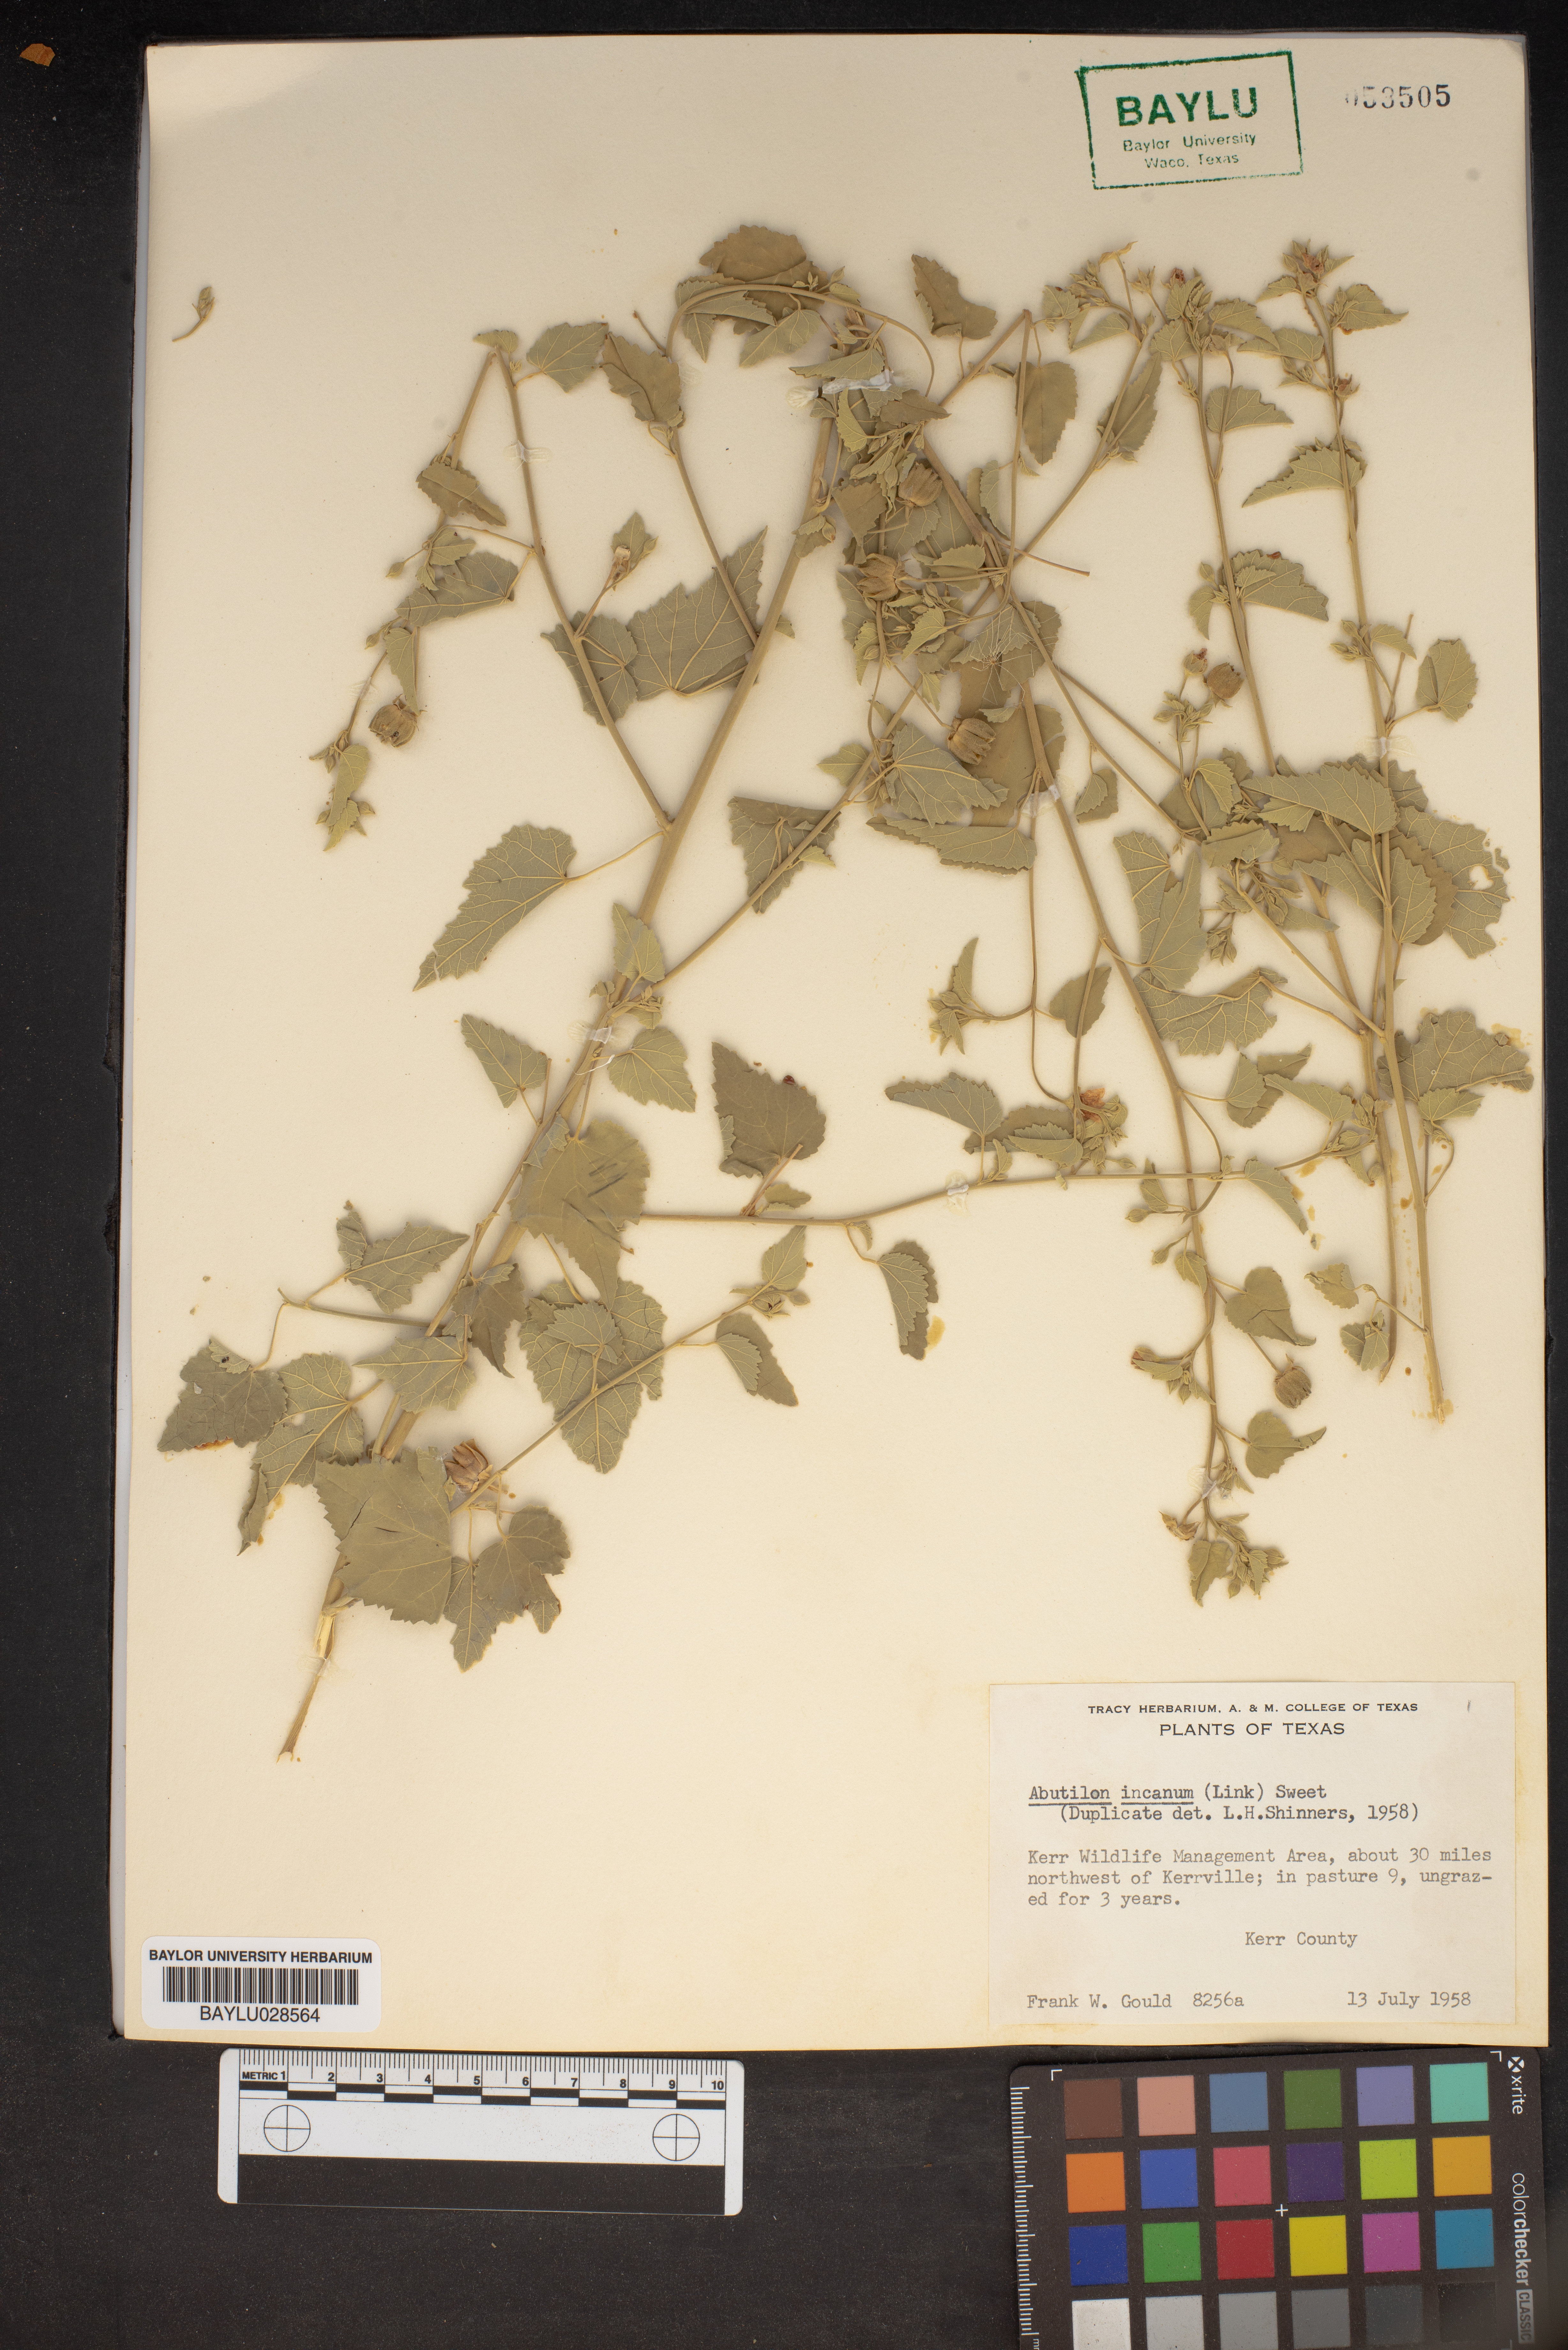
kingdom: Plantae
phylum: Tracheophyta
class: Magnoliopsida
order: Malvales
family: Malvaceae
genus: Abutilon
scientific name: Abutilon incanum
